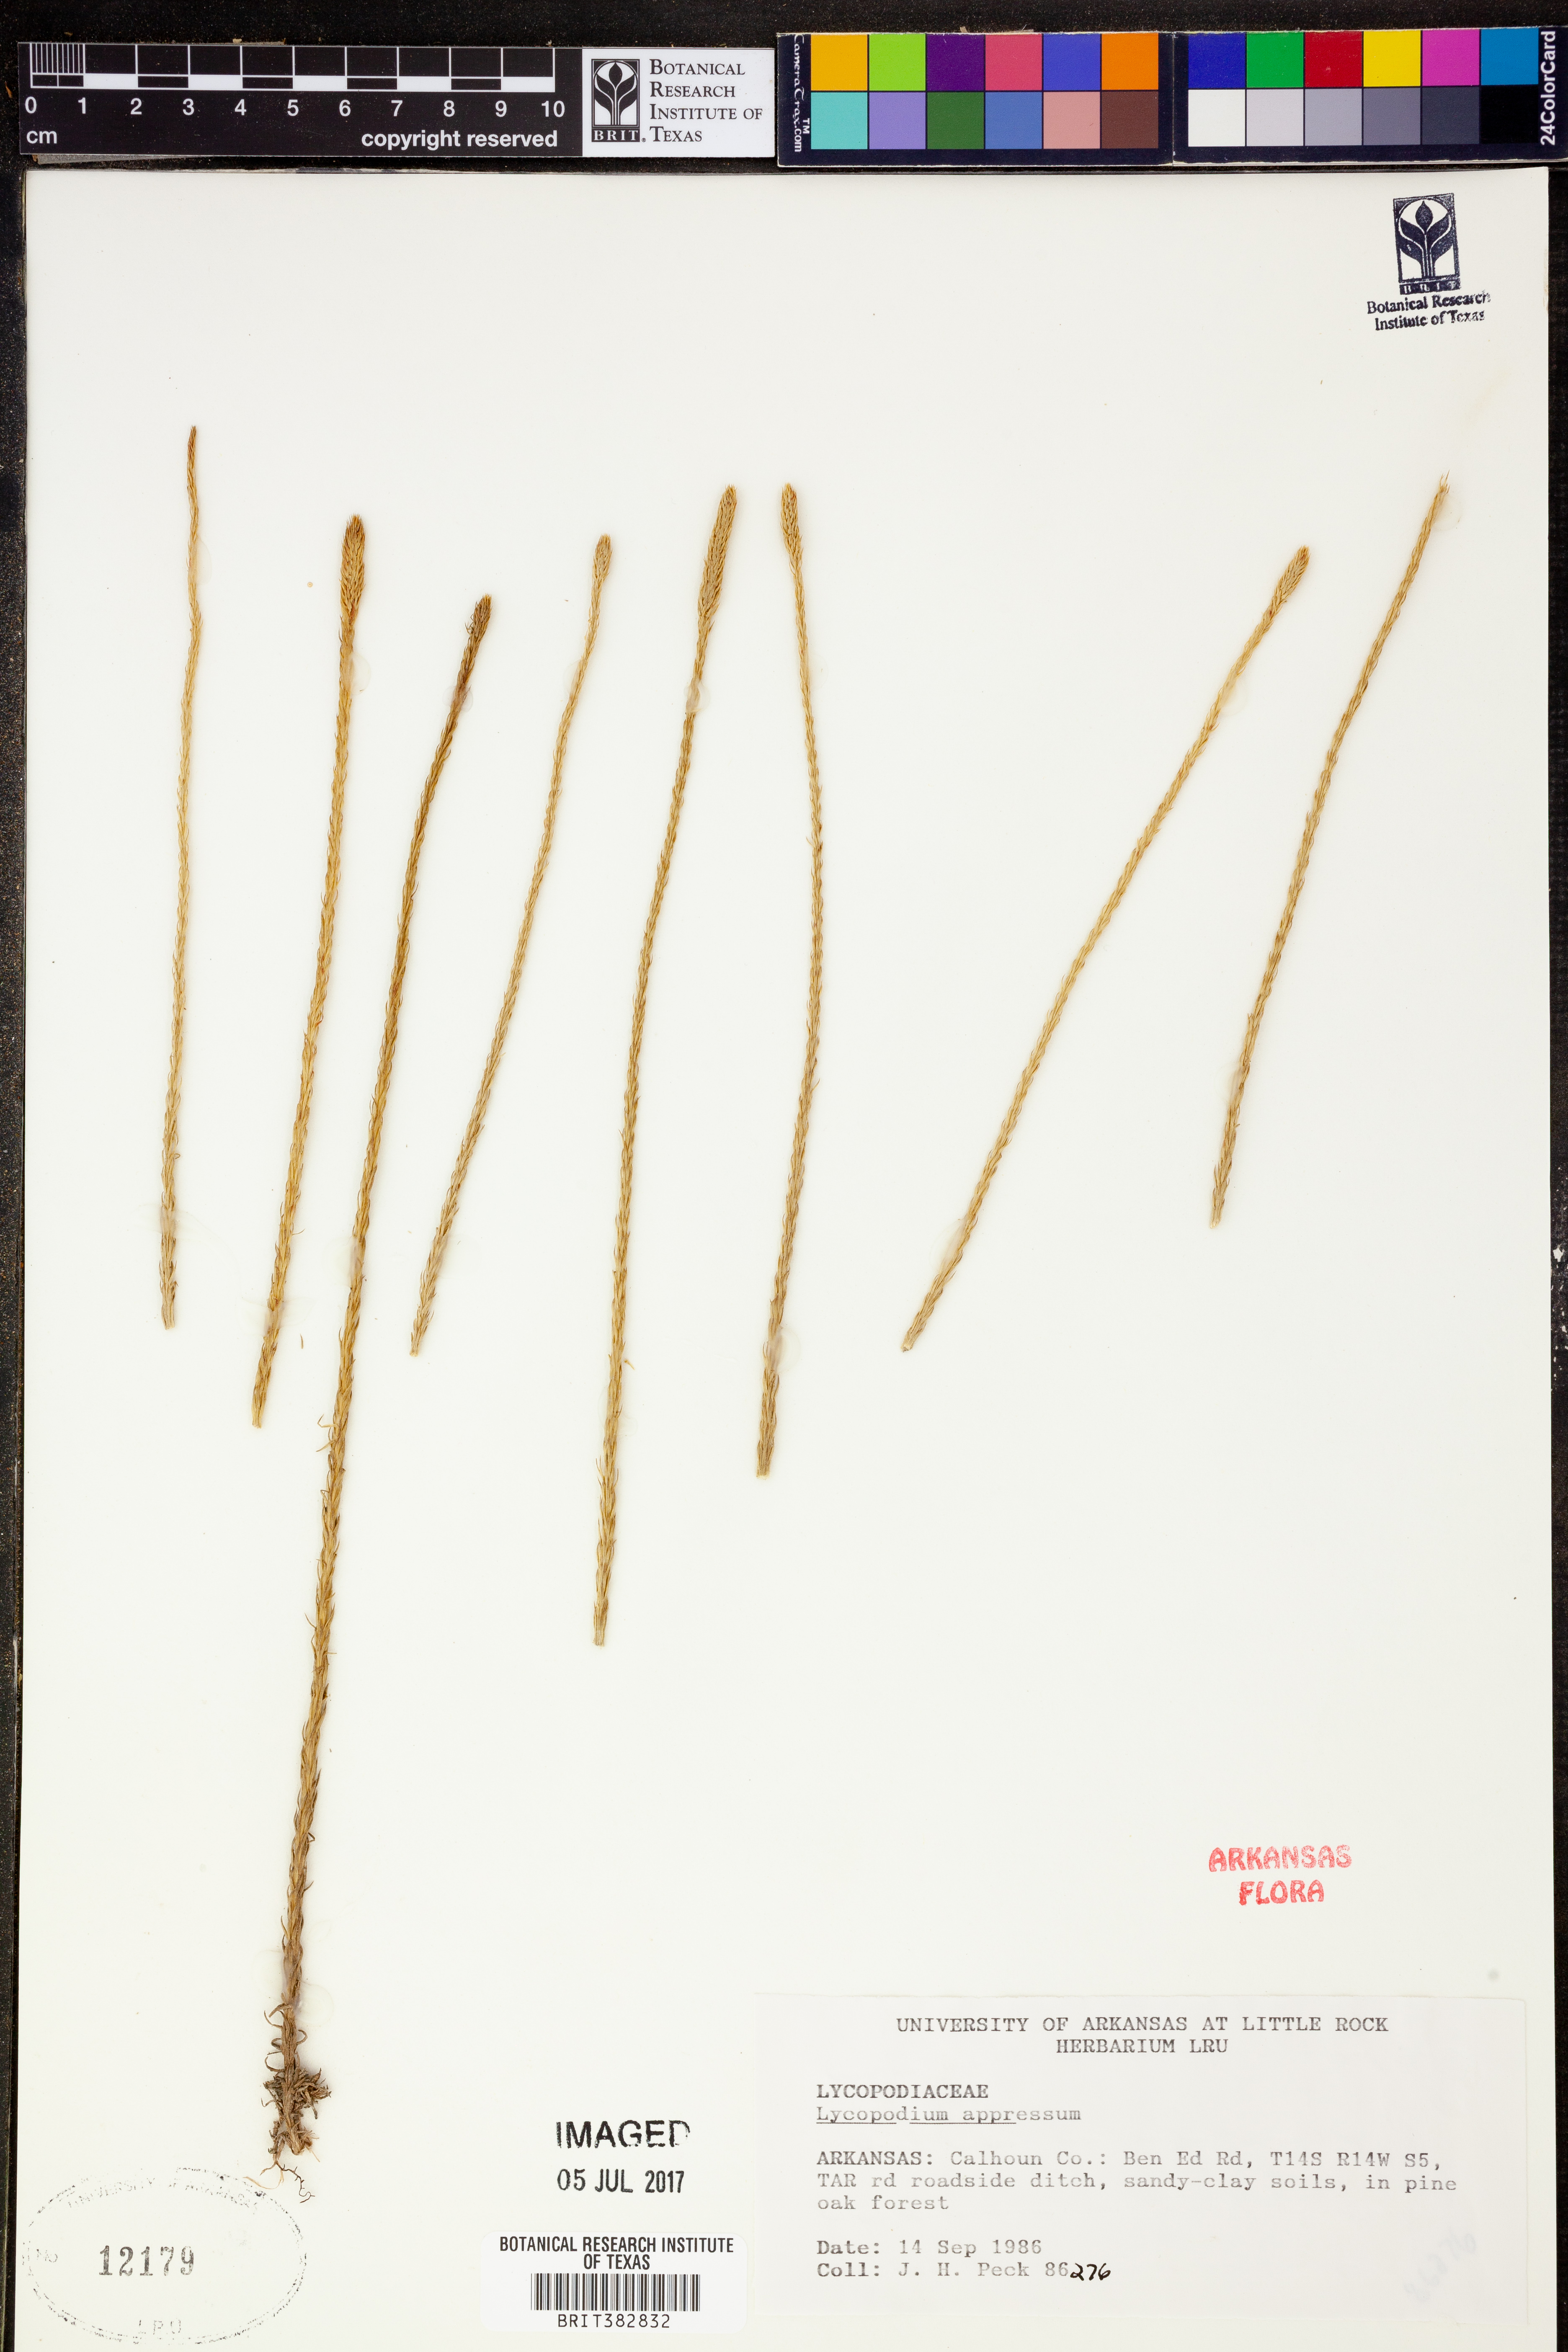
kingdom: Plantae
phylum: Tracheophyta
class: Lycopodiopsida
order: Lycopodiales
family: Lycopodiaceae
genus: Lycopodiella
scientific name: Lycopodiella appressa
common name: Appressed bog clubmoss
